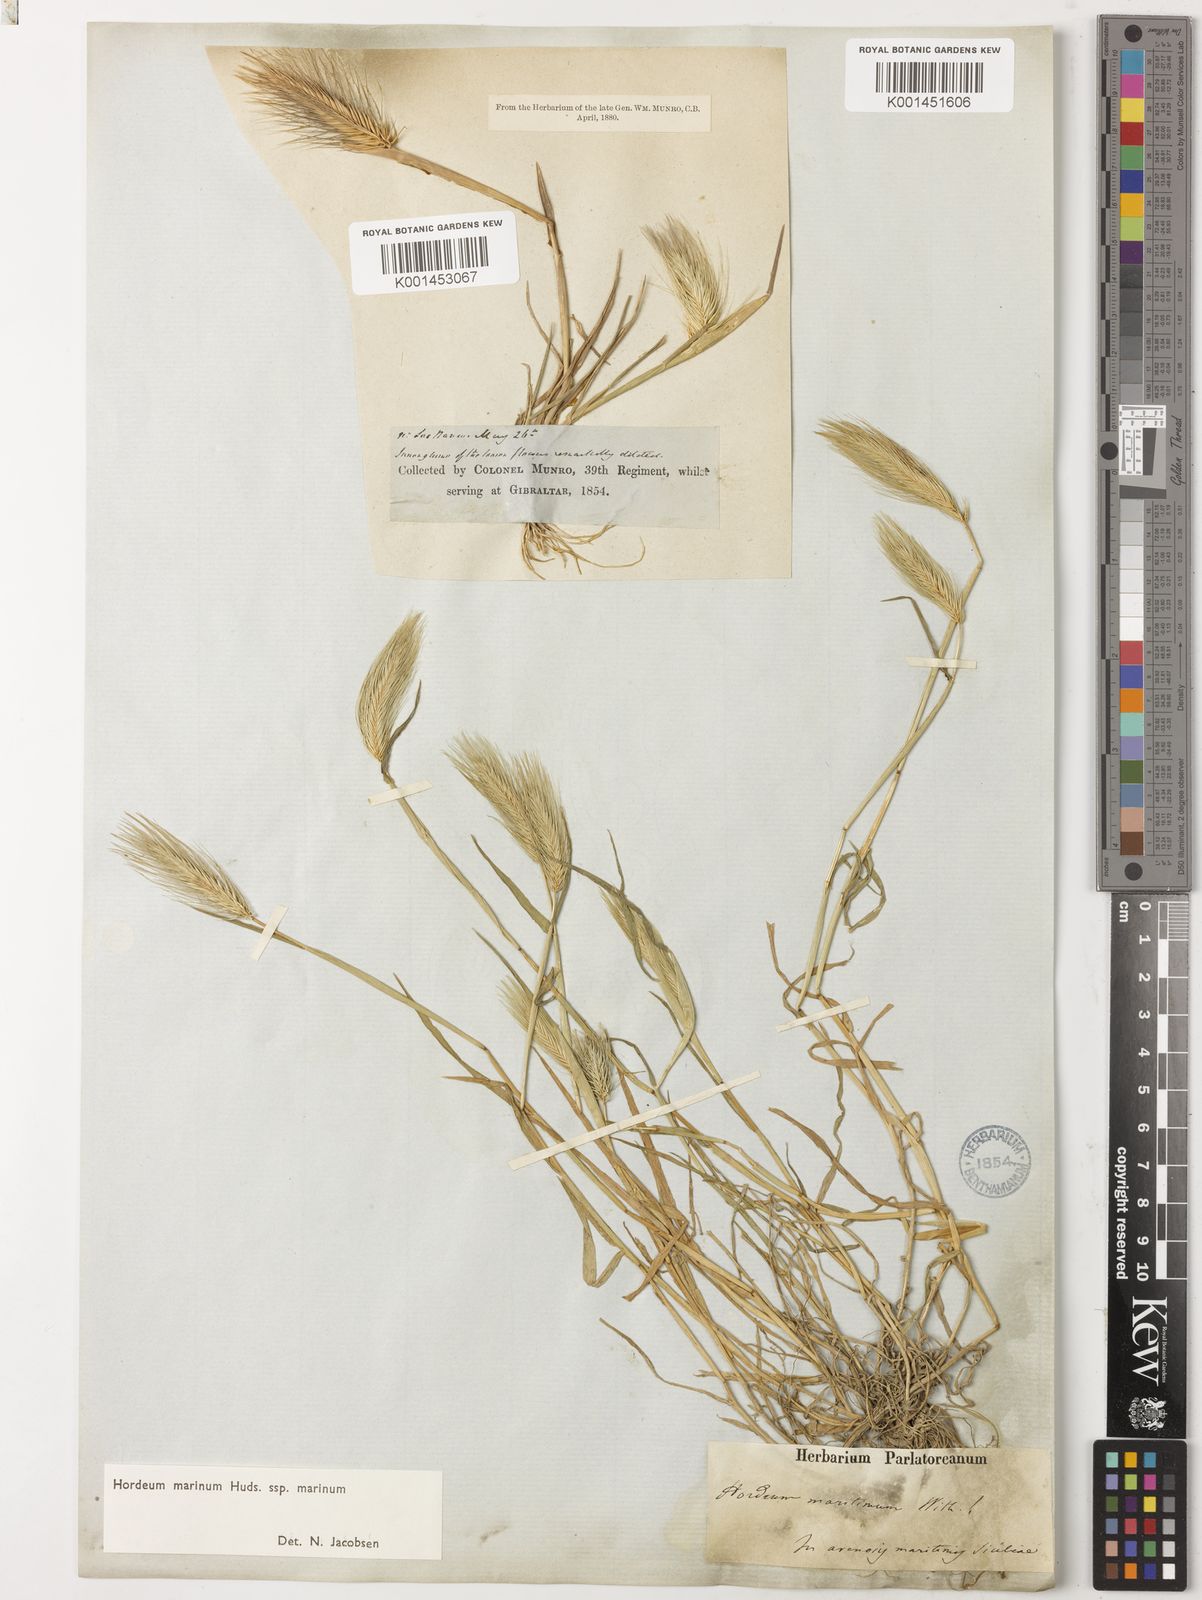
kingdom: Plantae
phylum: Tracheophyta
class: Liliopsida
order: Poales
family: Poaceae
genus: Hordeum
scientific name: Hordeum marinum
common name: Sea barley
